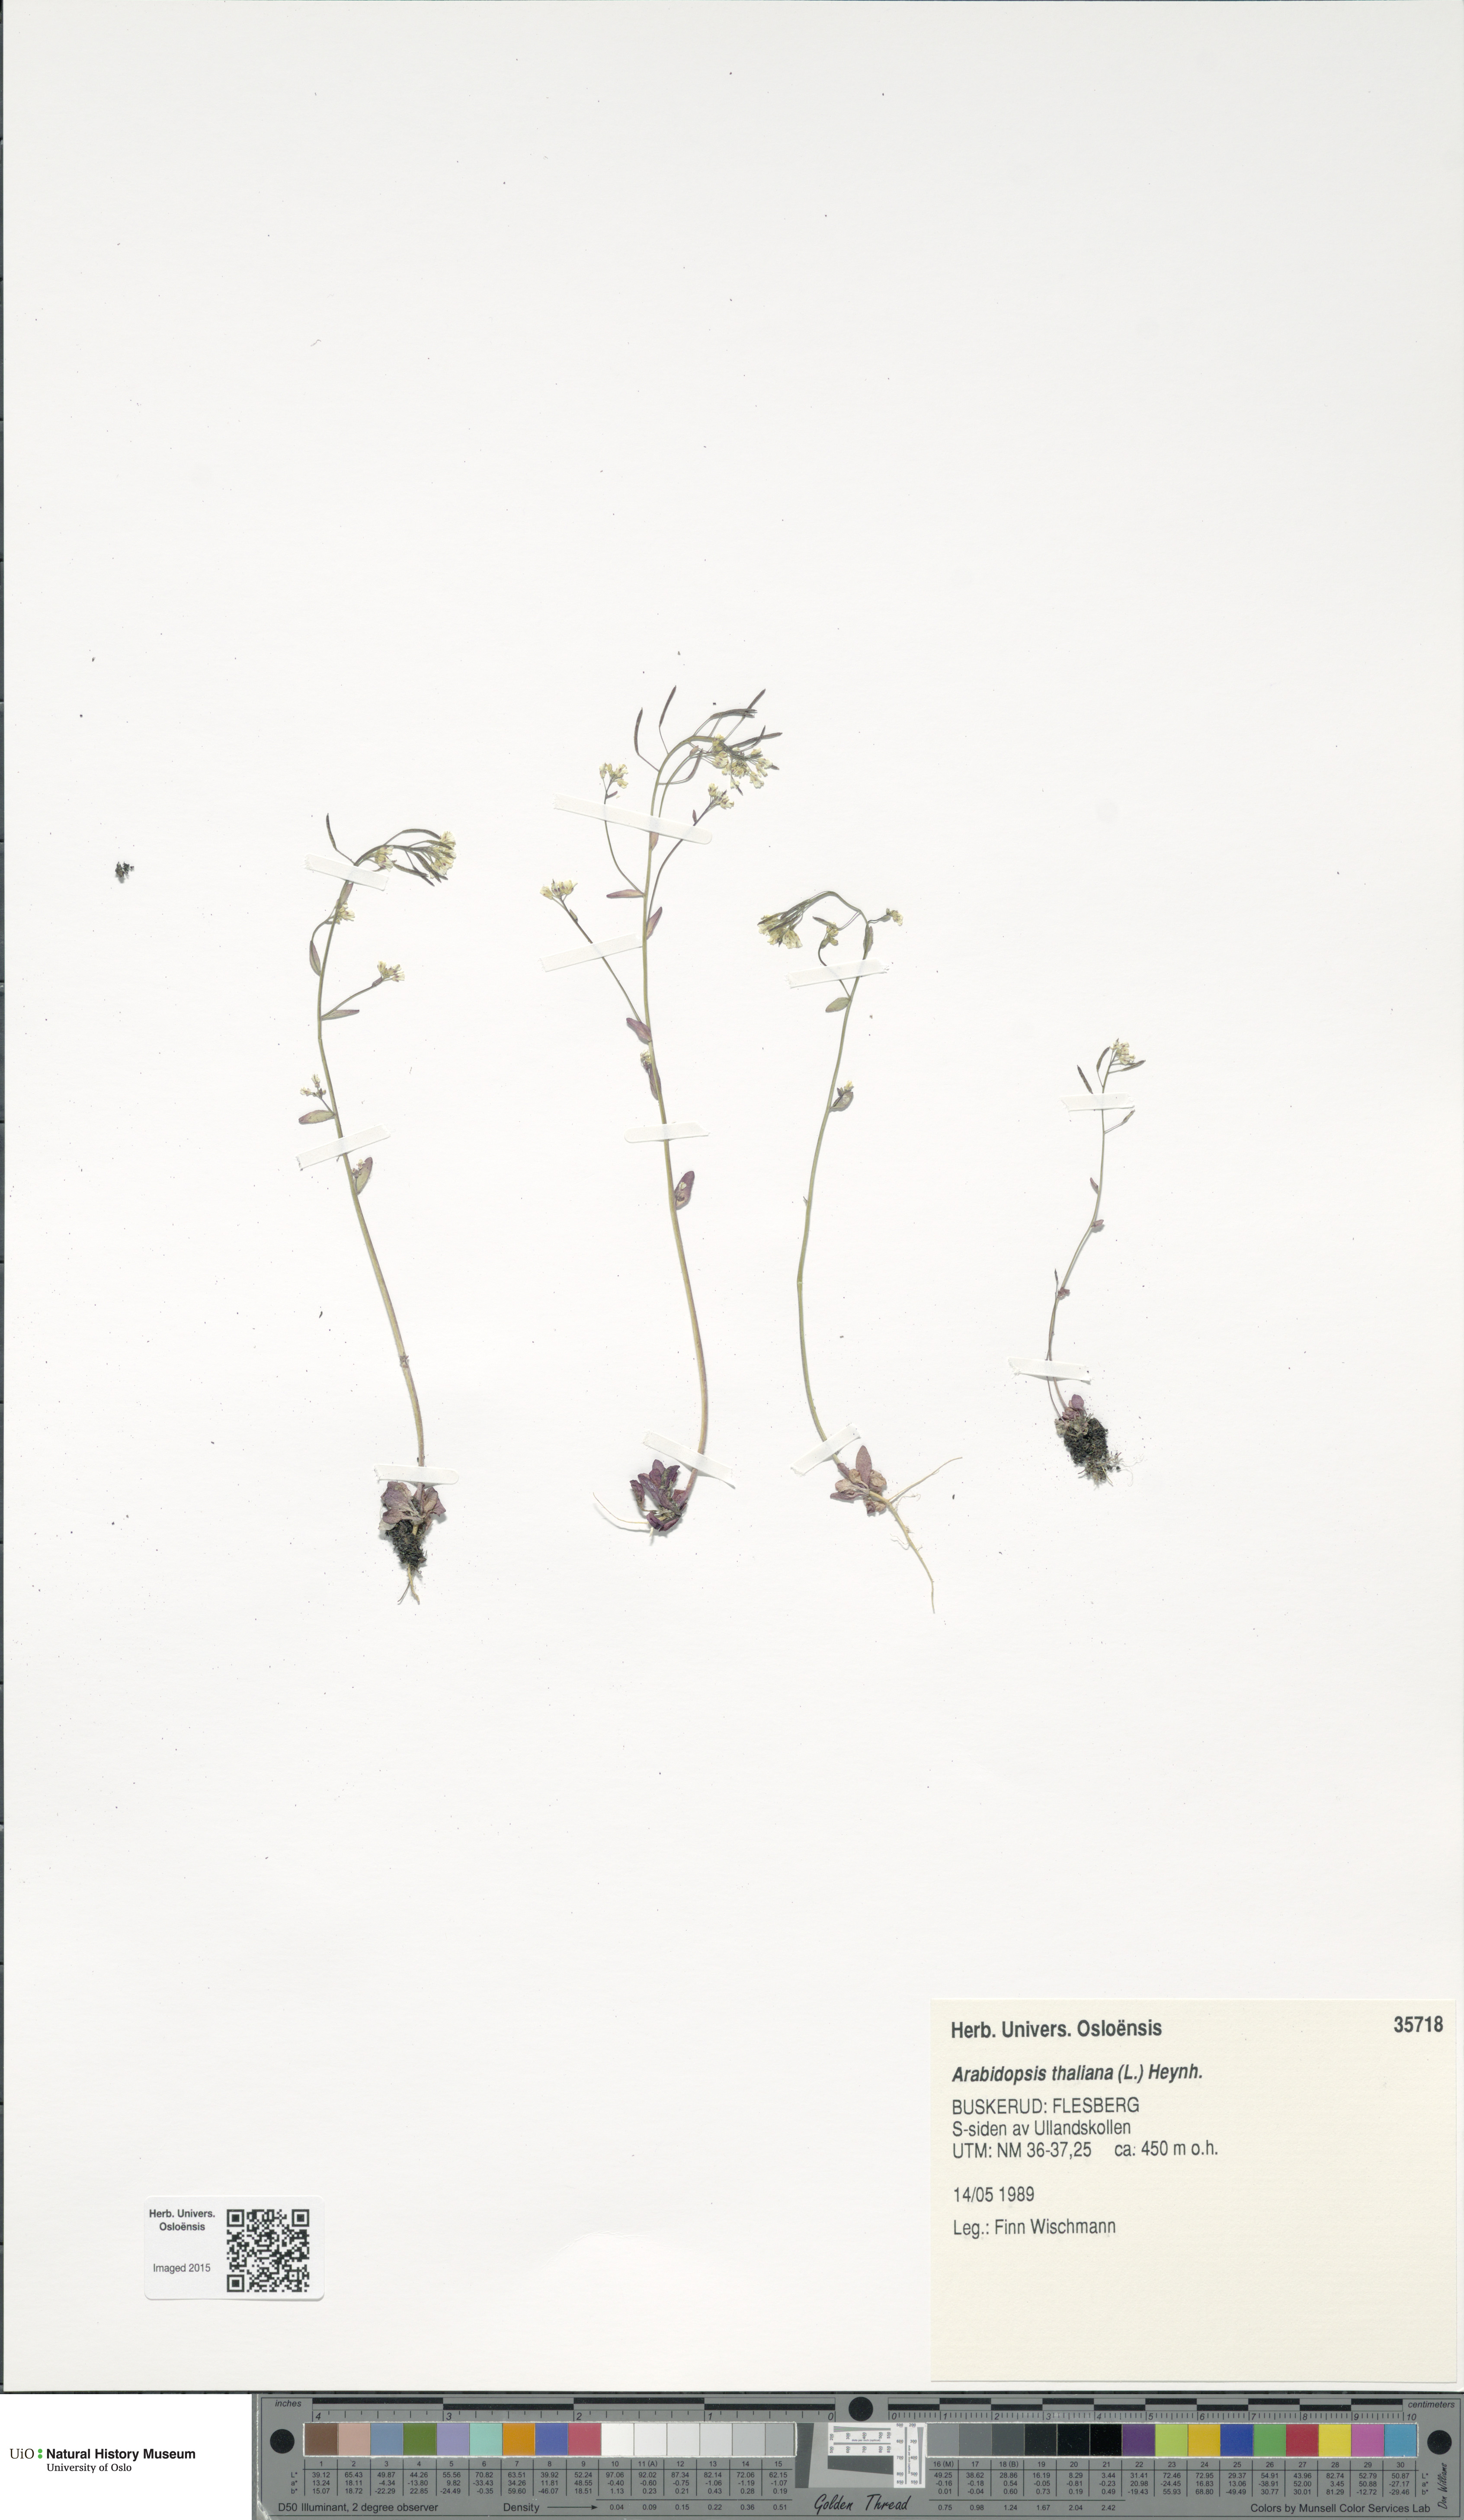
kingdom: Plantae
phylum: Tracheophyta
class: Magnoliopsida
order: Brassicales
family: Brassicaceae
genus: Arabidopsis
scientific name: Arabidopsis thaliana
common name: Thale cress
